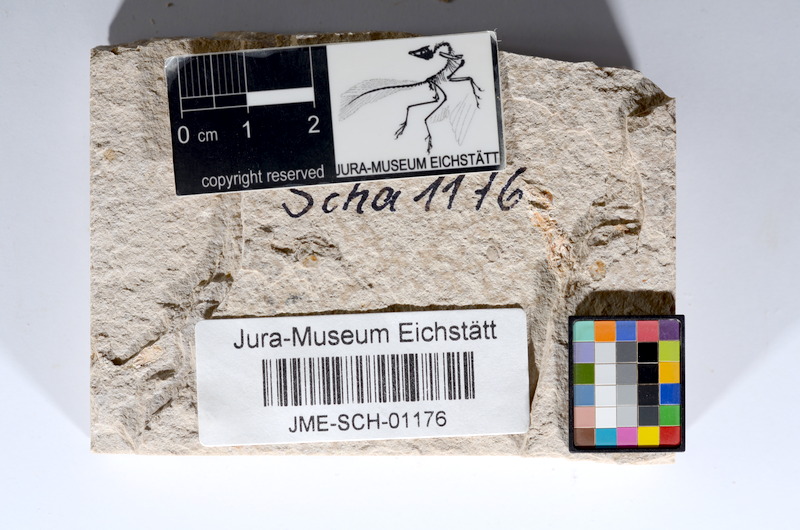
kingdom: Animalia
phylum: Chordata
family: Ascalaboidae
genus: Tharsis
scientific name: Tharsis dubius
